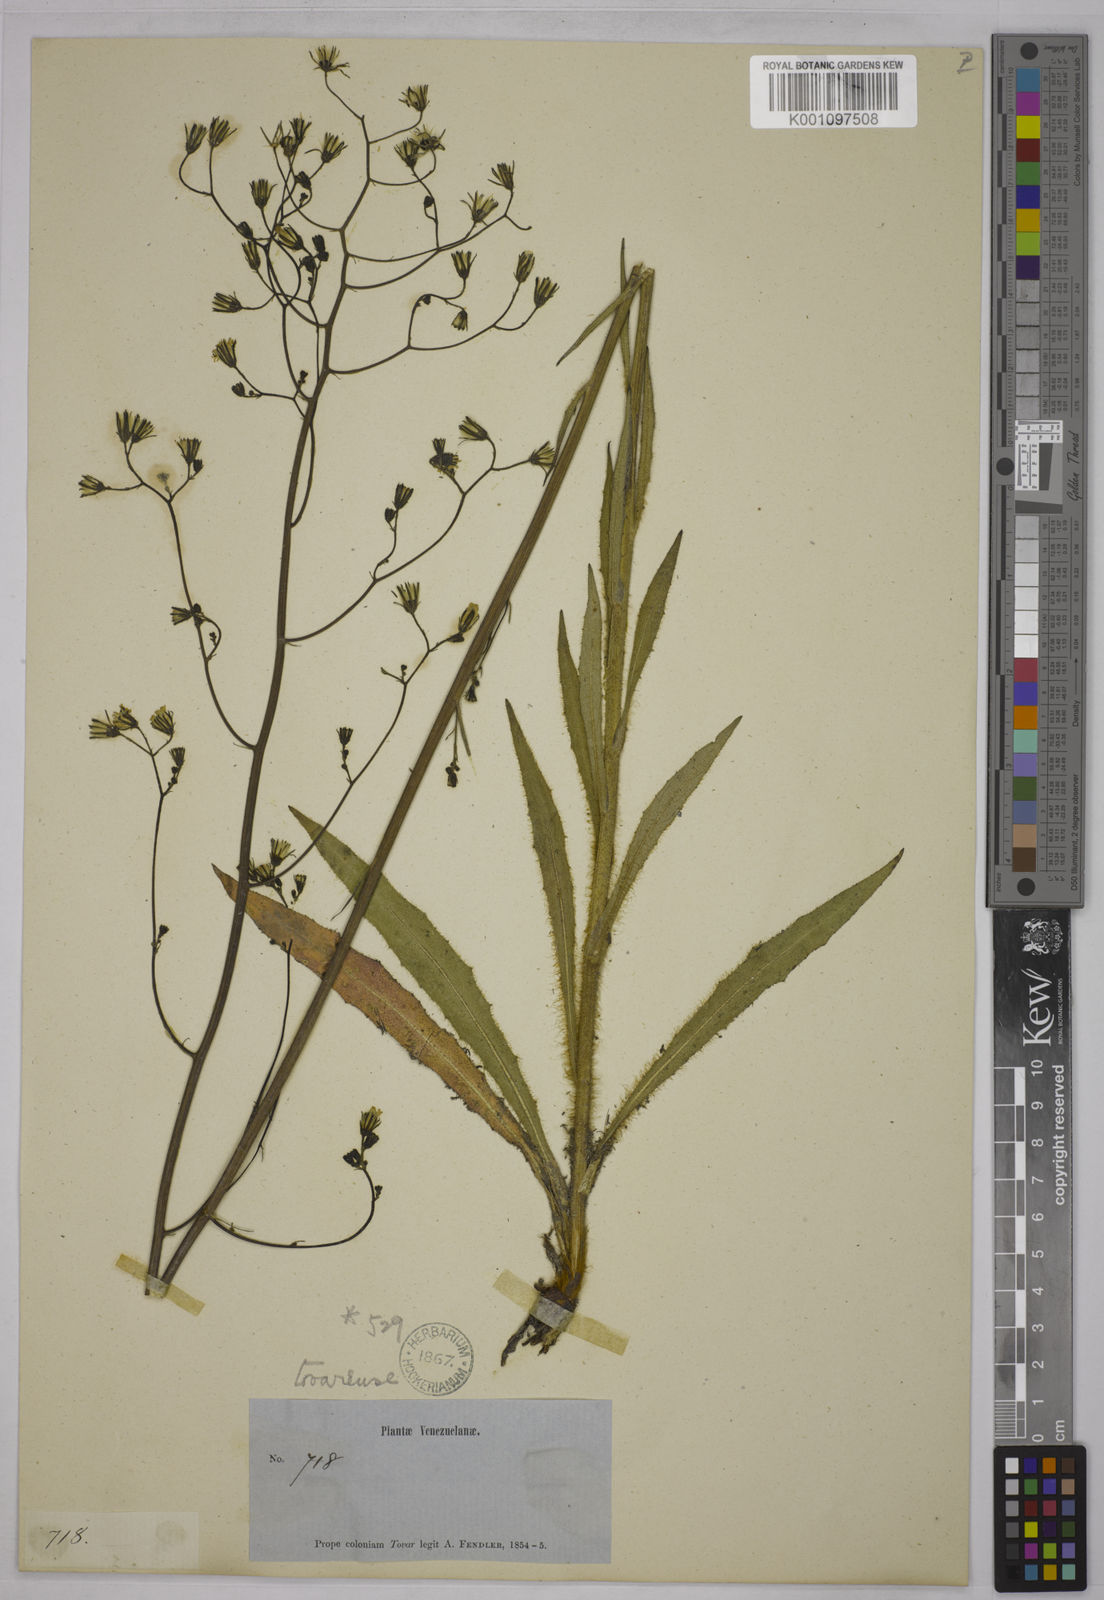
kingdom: Plantae
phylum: Tracheophyta
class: Magnoliopsida
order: Asterales
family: Asteraceae
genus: Hieracium
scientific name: Hieracium avilae
